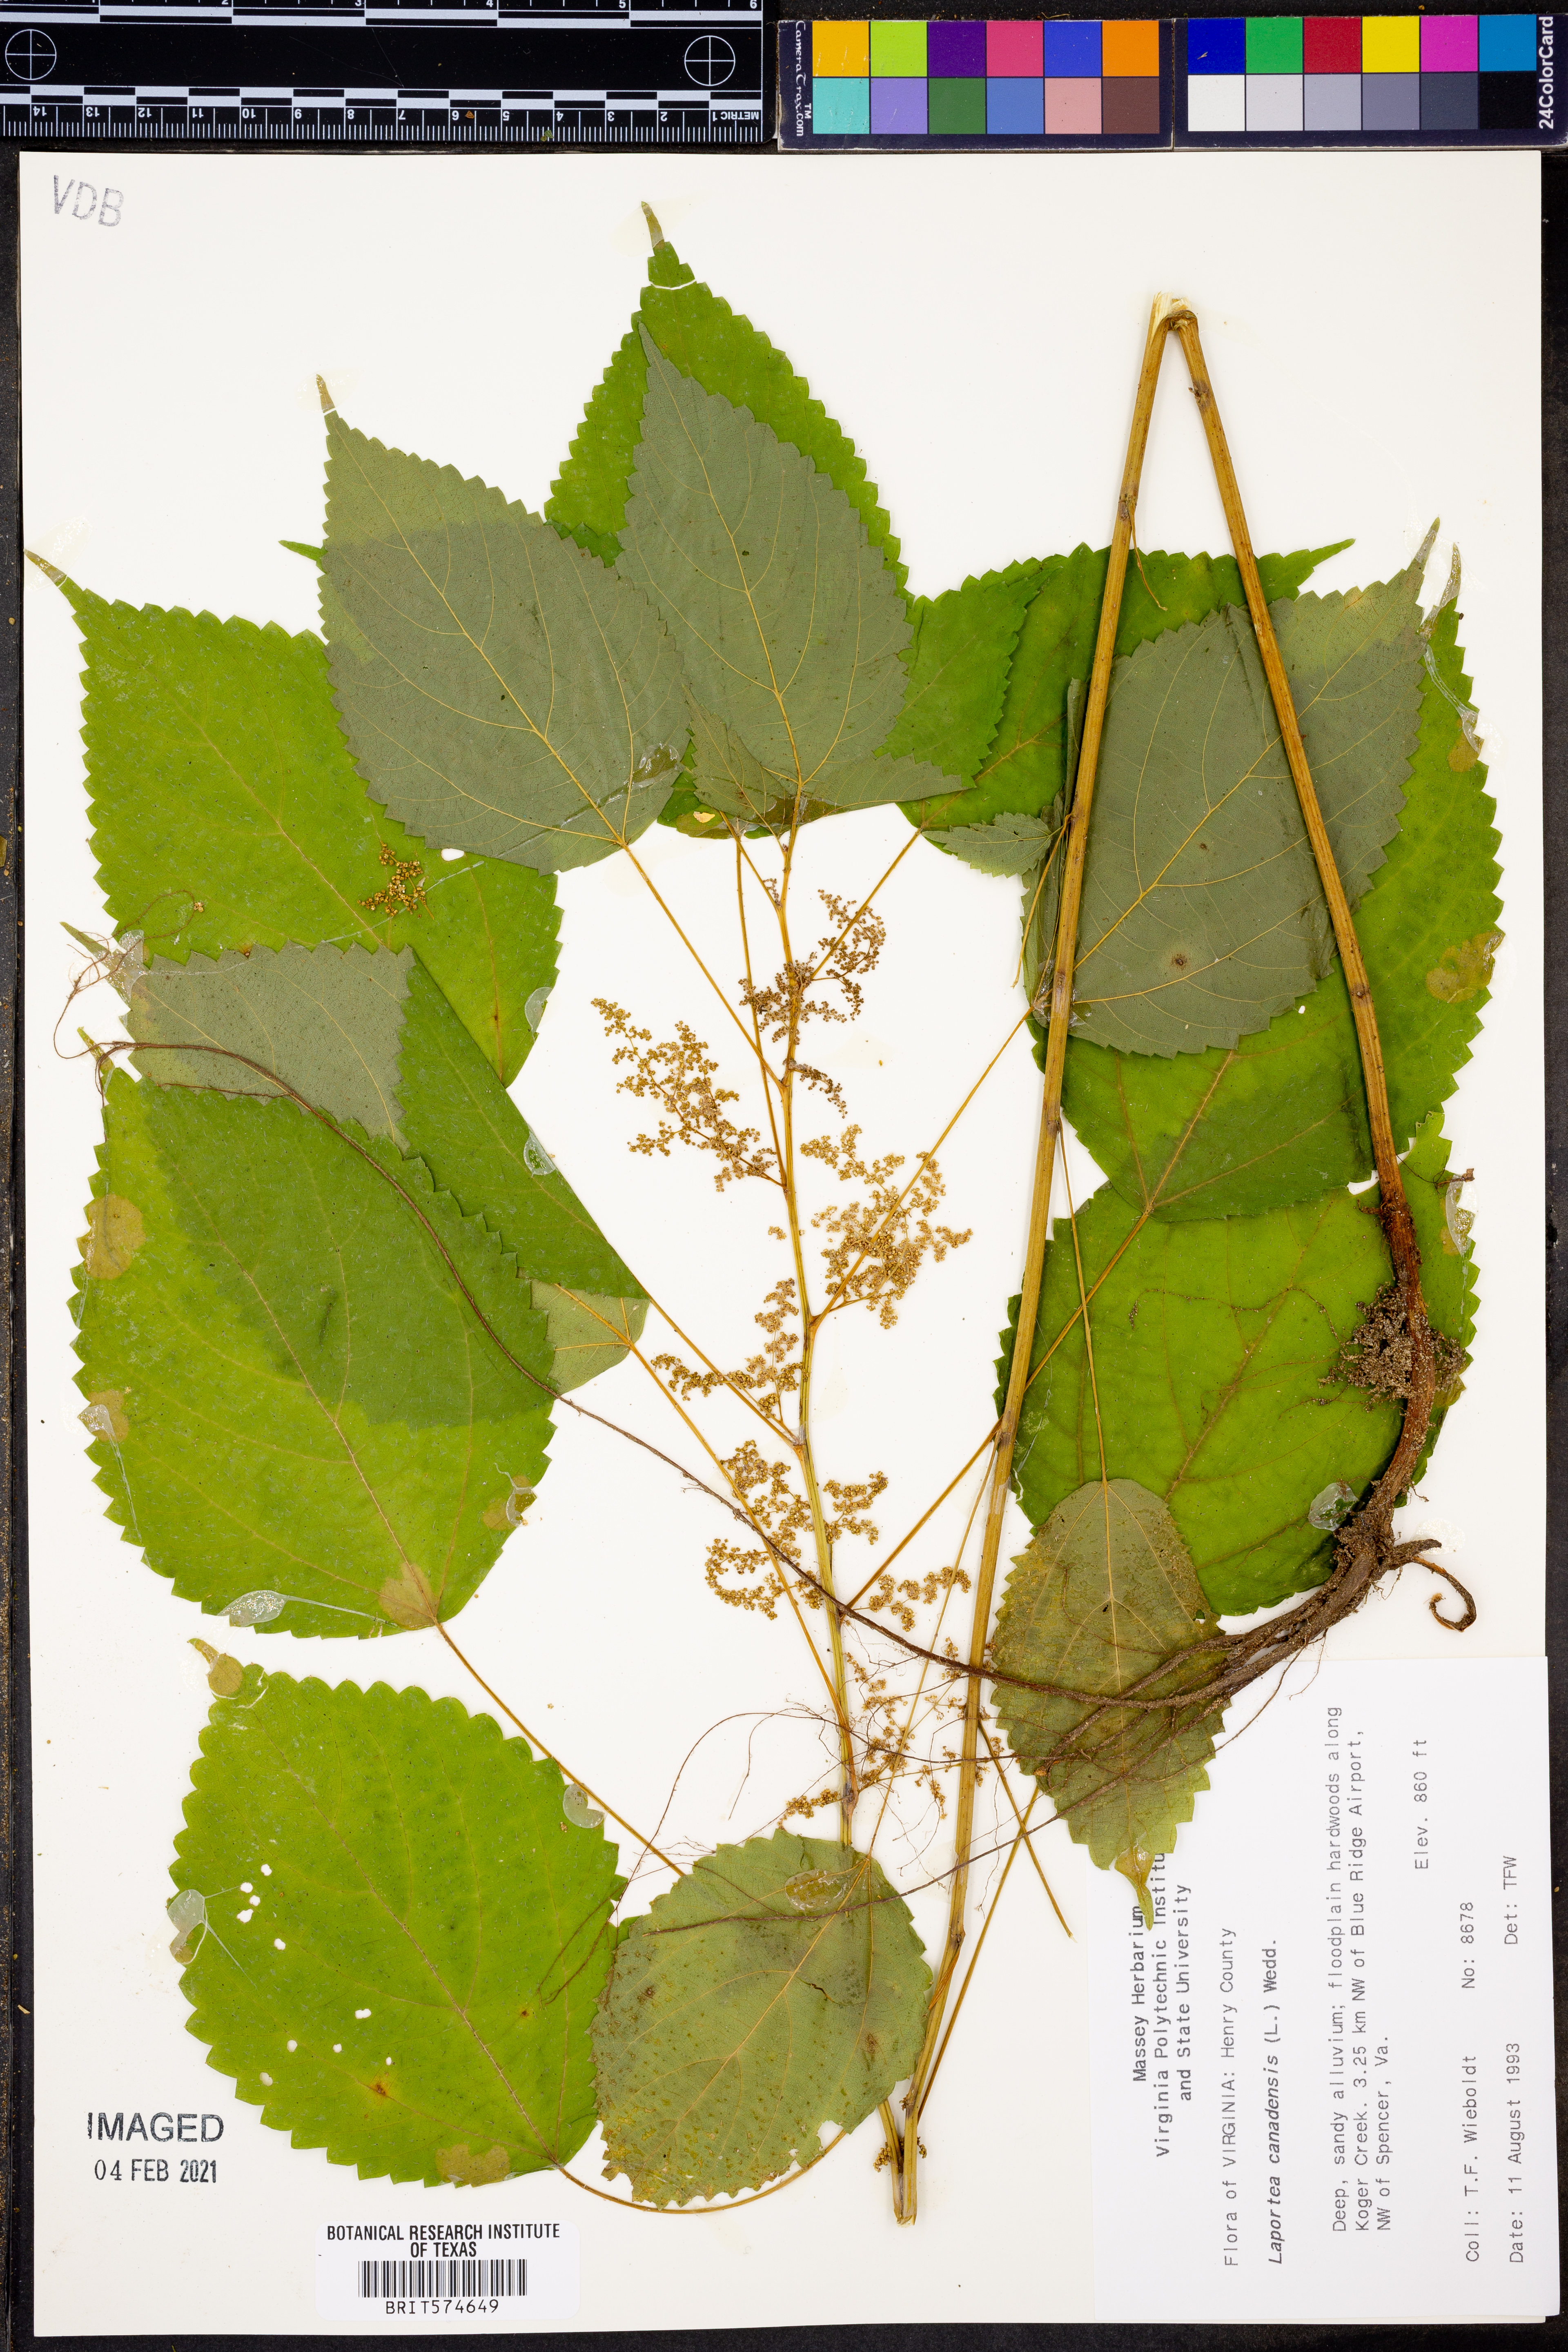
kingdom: Plantae
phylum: Tracheophyta
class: Magnoliopsida
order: Rosales
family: Urticaceae
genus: Laportea
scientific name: Laportea canadensis
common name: Canada nettle
